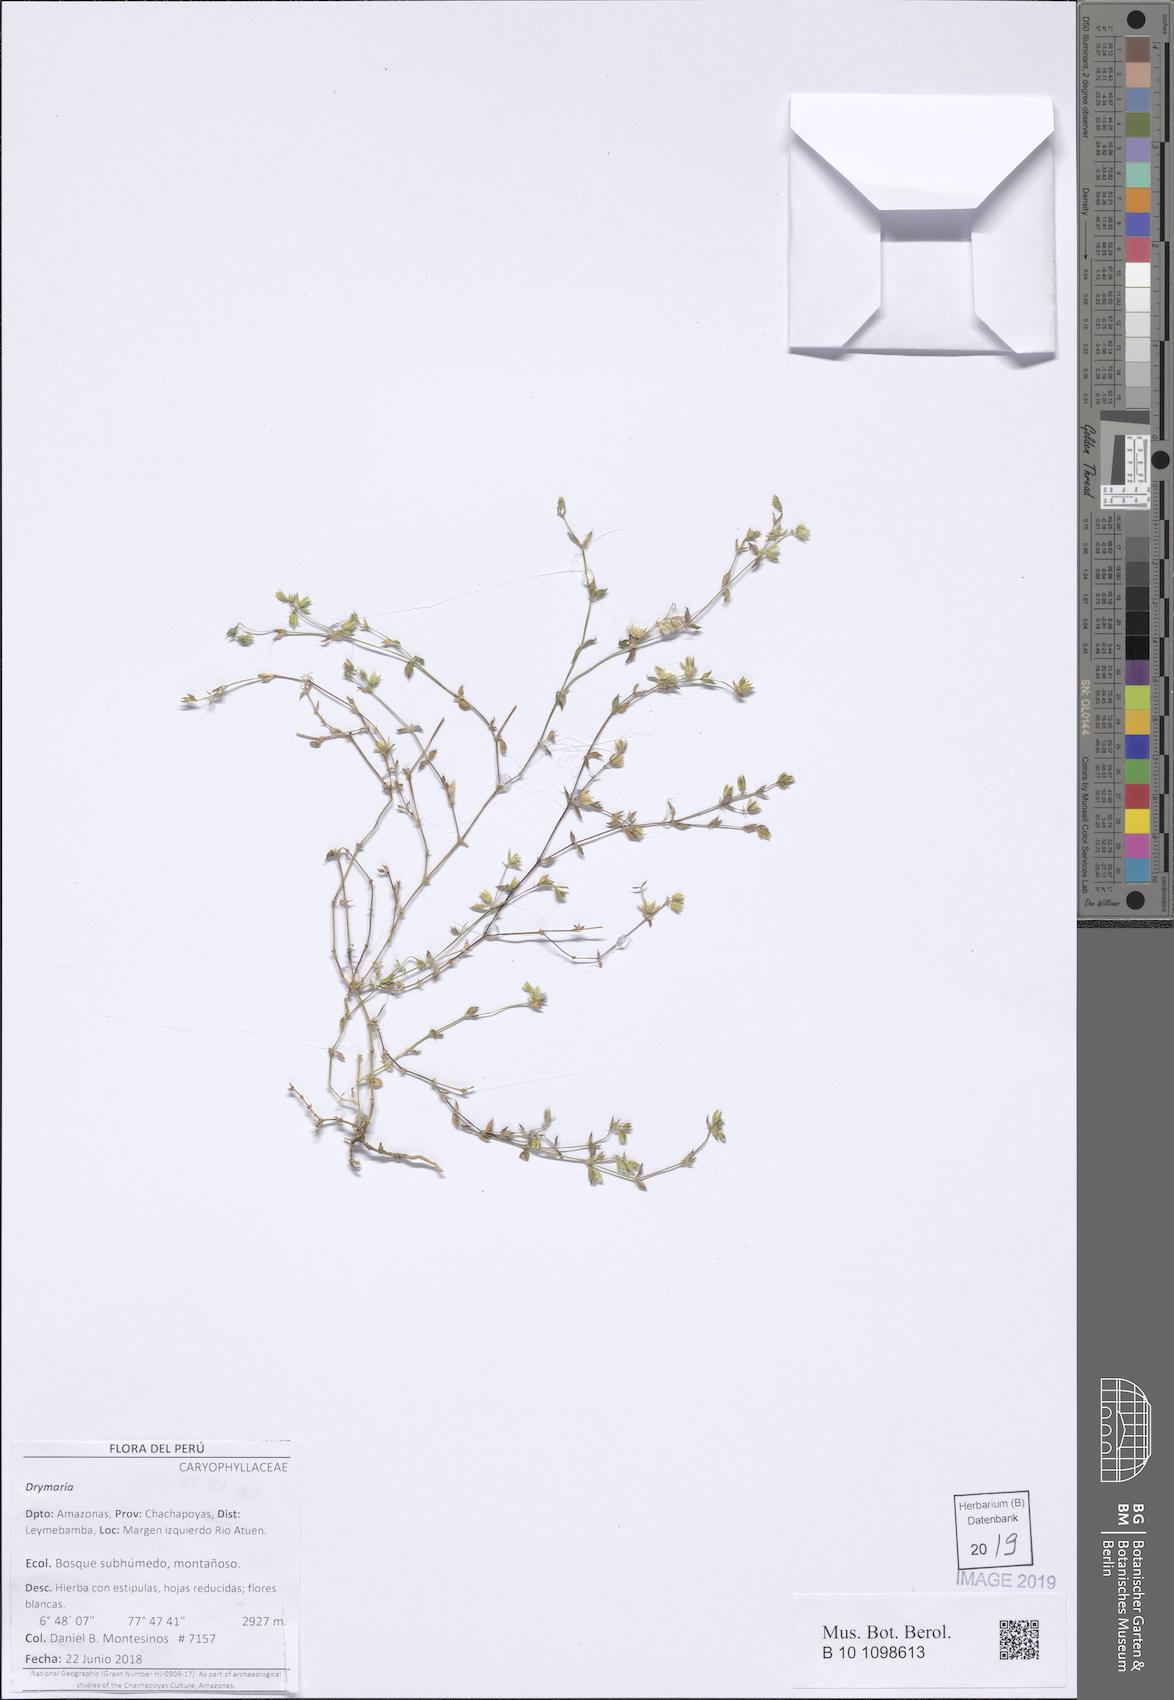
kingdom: Plantae
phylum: Tracheophyta
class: Magnoliopsida
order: Caryophyllales
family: Caryophyllaceae
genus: Drymaria
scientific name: Drymaria
